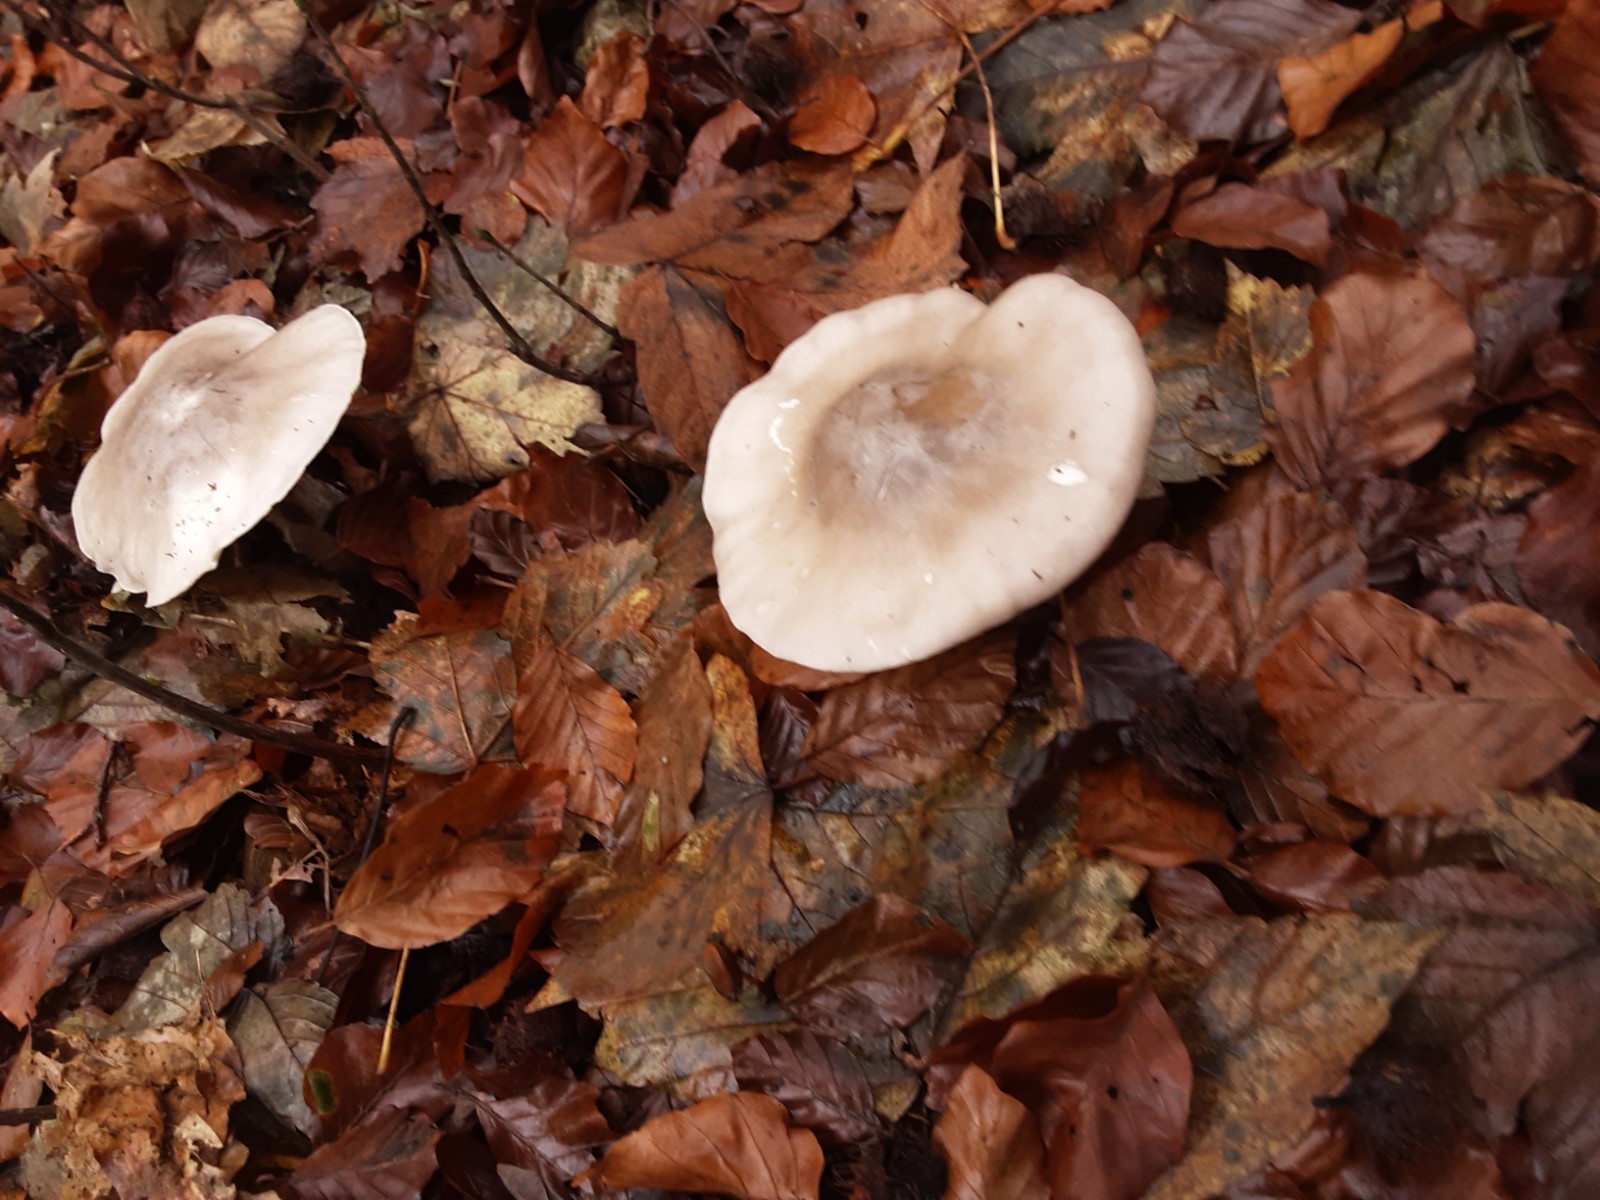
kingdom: Fungi
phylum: Basidiomycota
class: Agaricomycetes
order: Agaricales
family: Tricholomataceae
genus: Clitocybe
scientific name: Clitocybe nebularis
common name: tåge-tragthat
